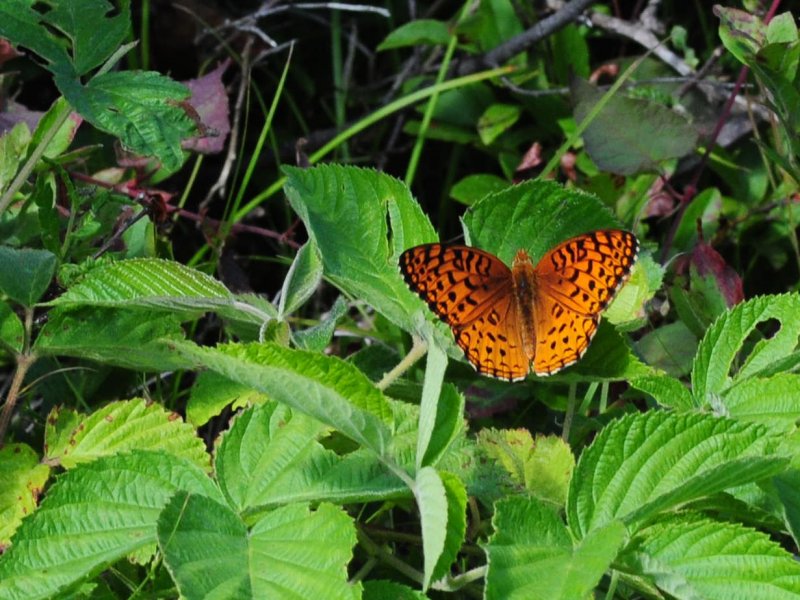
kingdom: Animalia
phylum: Arthropoda
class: Insecta
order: Lepidoptera
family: Nymphalidae
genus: Speyeria
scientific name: Speyeria aphrodite
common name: Aphrodite Fritillary
